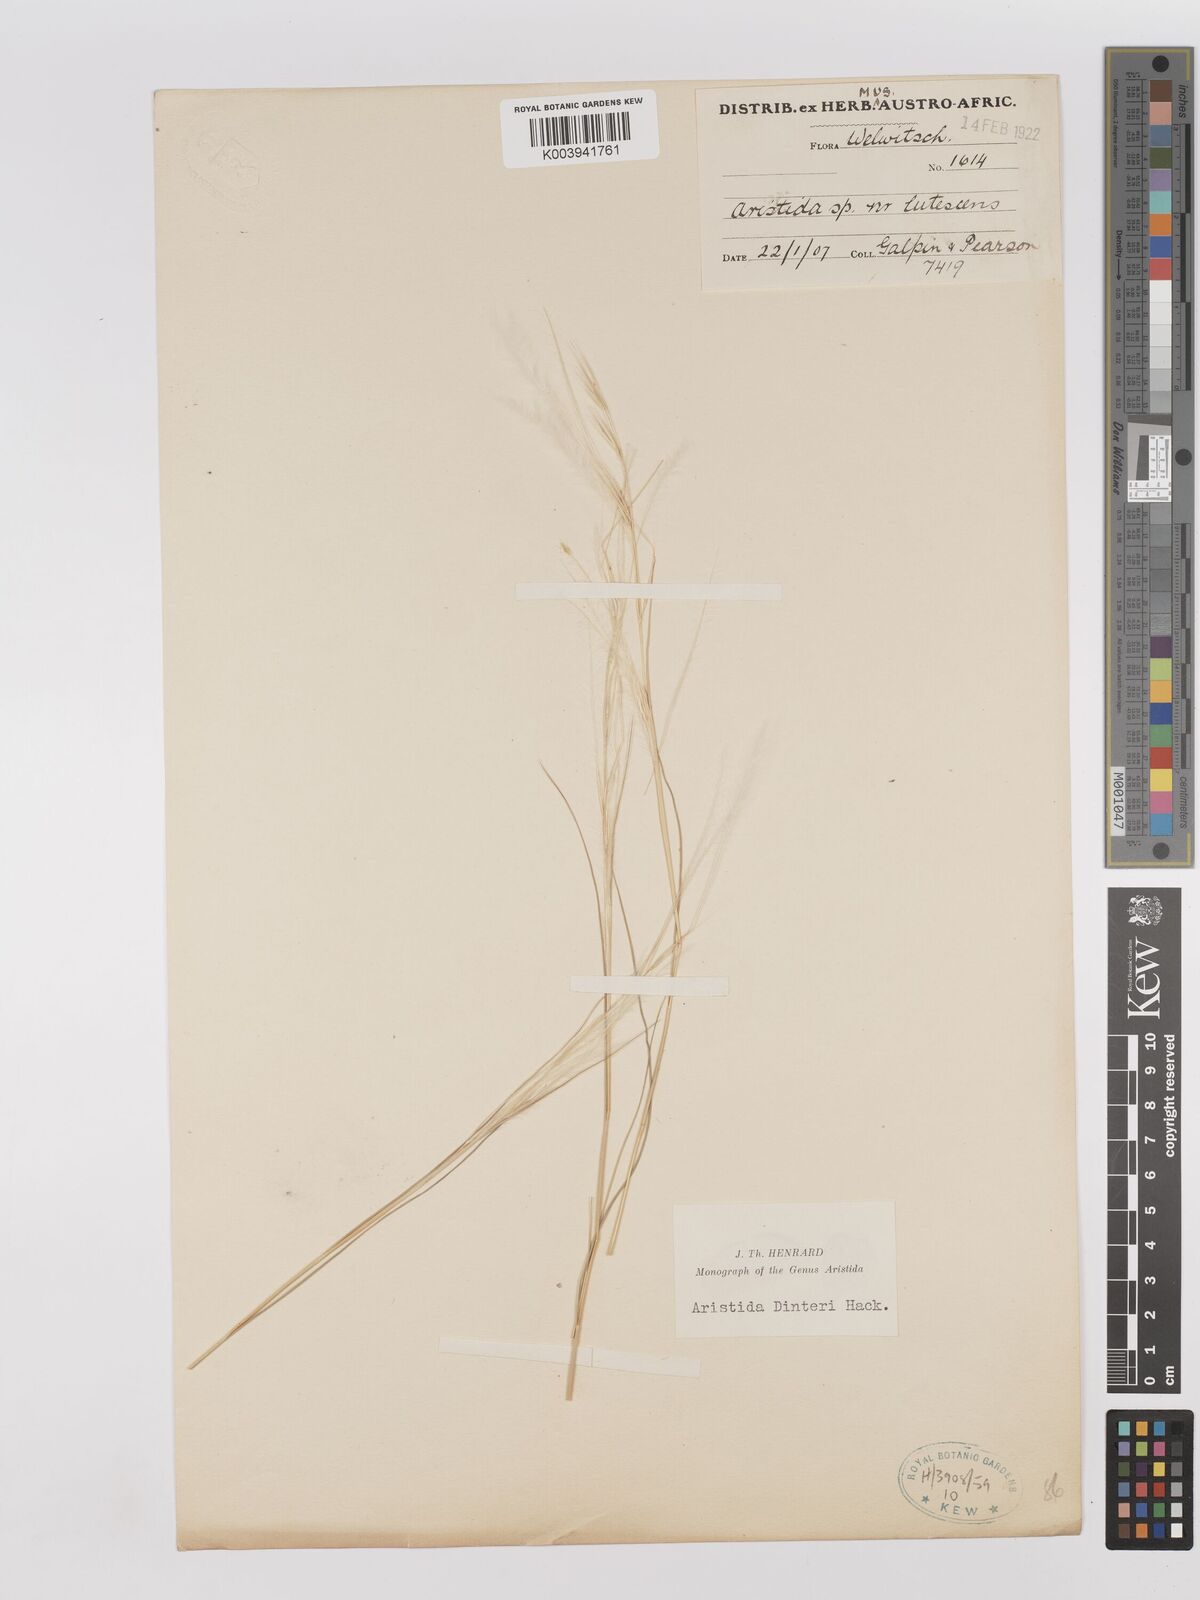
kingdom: Plantae
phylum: Tracheophyta
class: Liliopsida
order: Poales
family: Poaceae
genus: Stipagrostis
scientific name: Stipagrostis dinteri
